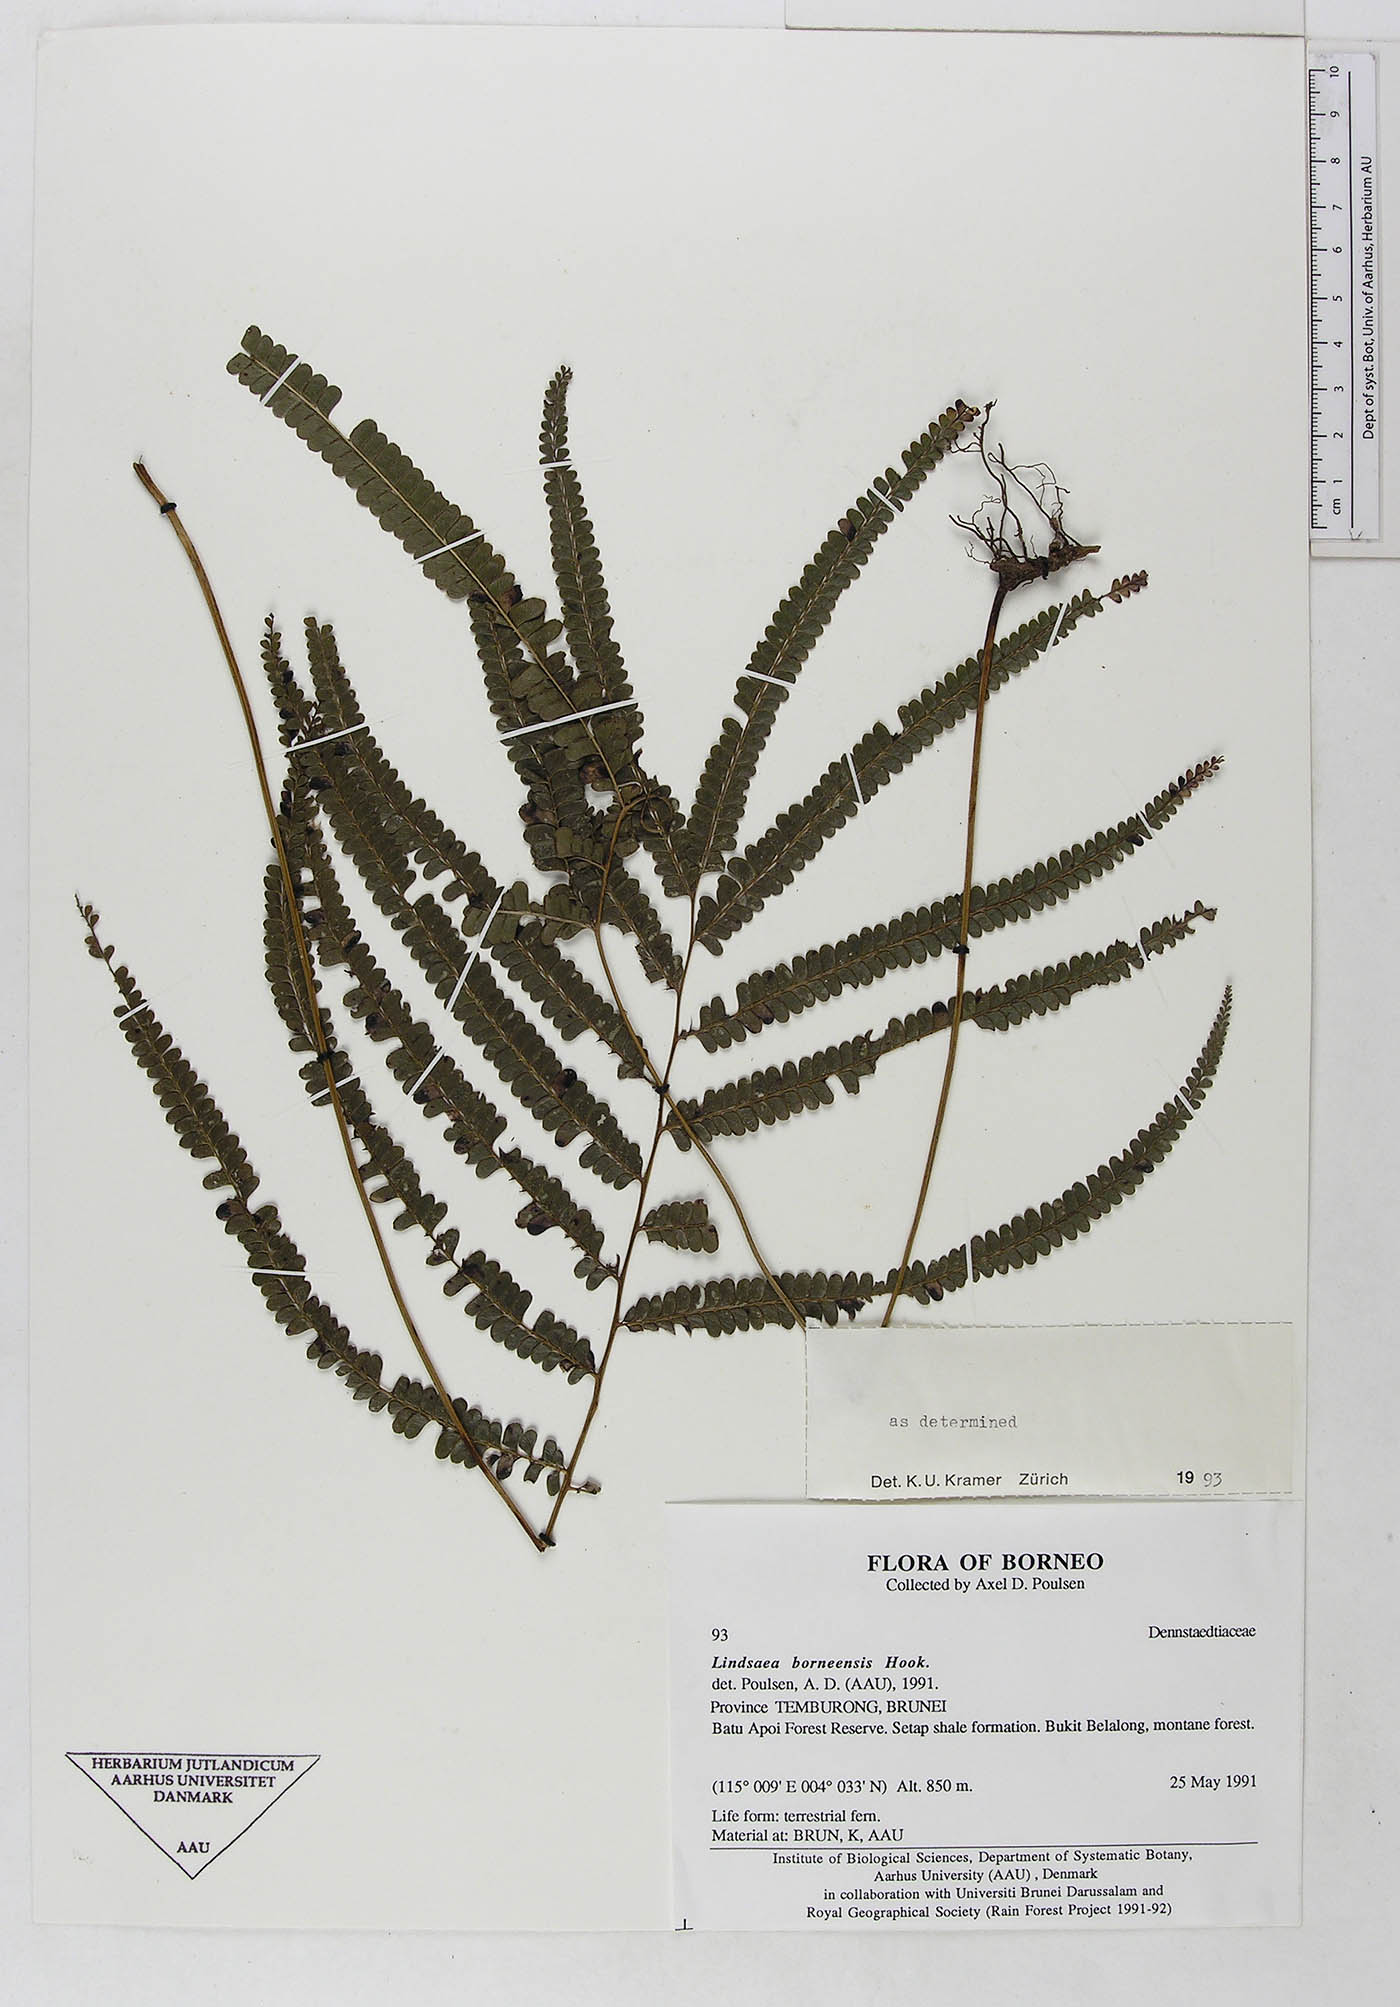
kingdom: Plantae
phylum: Tracheophyta
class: Polypodiopsida
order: Polypodiales
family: Lindsaeaceae
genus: Lindsaea
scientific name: Lindsaea borneensis
